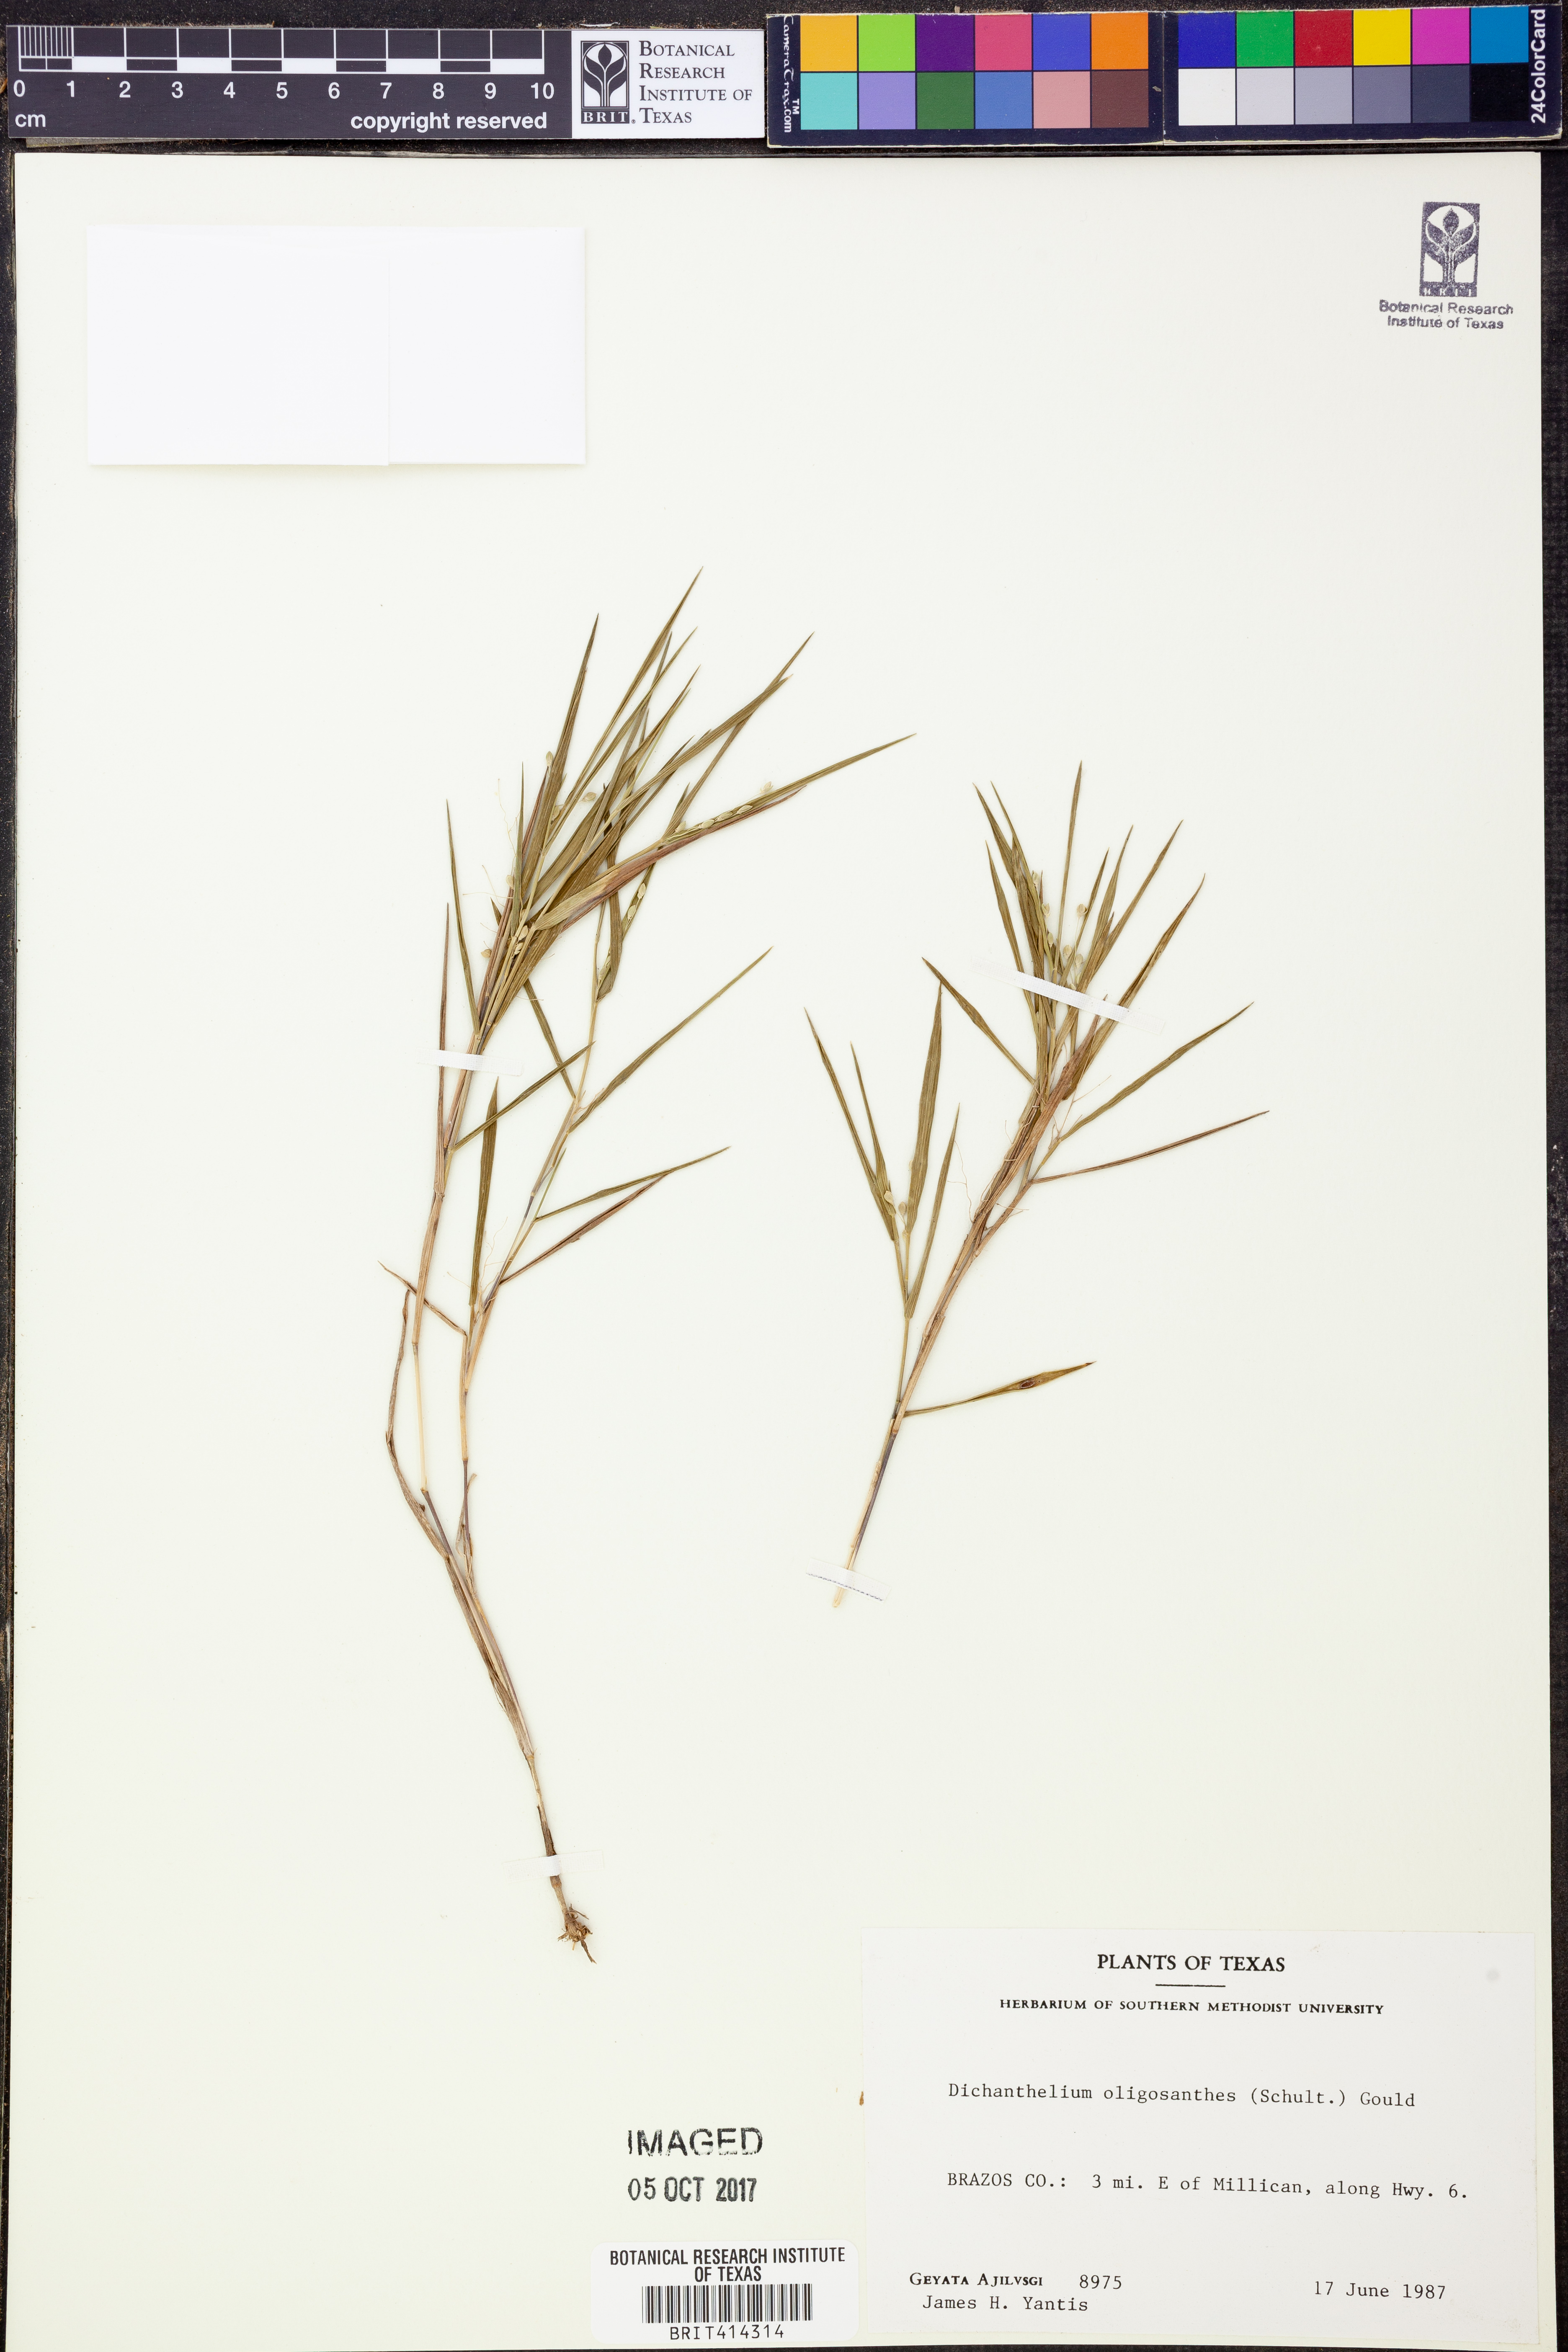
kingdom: Plantae
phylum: Tracheophyta
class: Liliopsida
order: Poales
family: Poaceae
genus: Dichanthelium
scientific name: Dichanthelium oligosanthes
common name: Few-anther obscuregrass
